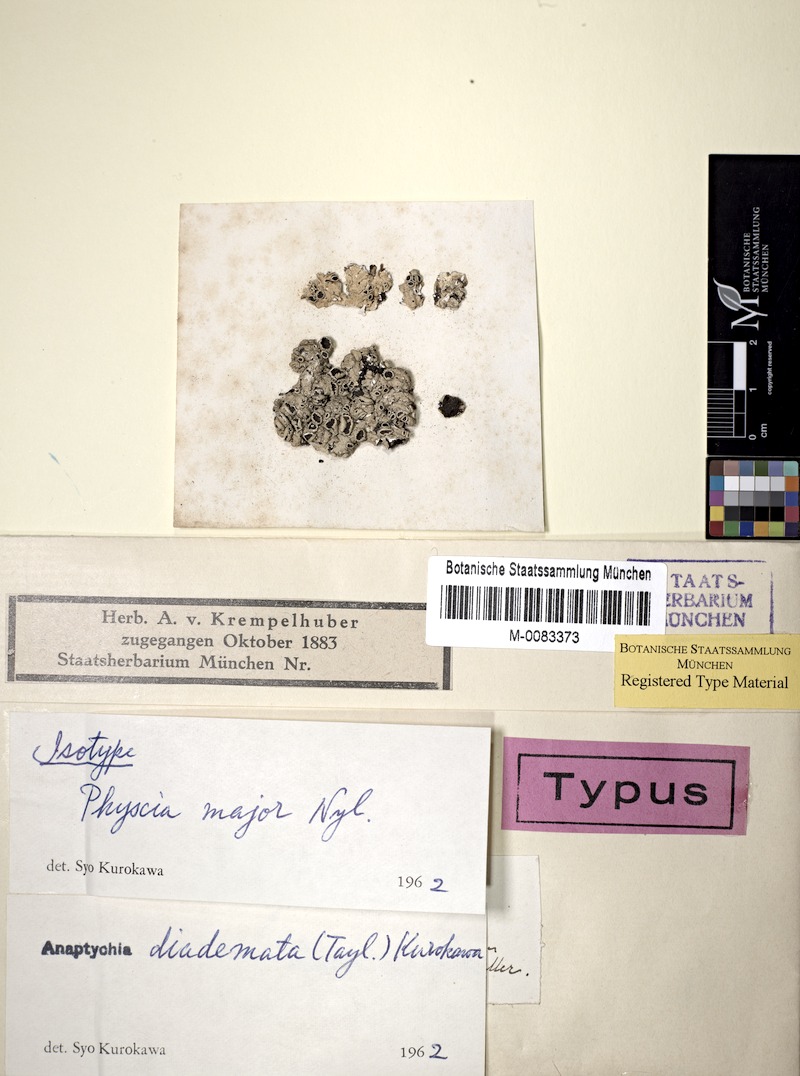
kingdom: Fungi
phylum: Ascomycota
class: Lecanoromycetes
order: Caliciales
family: Physciaceae
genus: Heterodermia
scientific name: Heterodermia diademata
